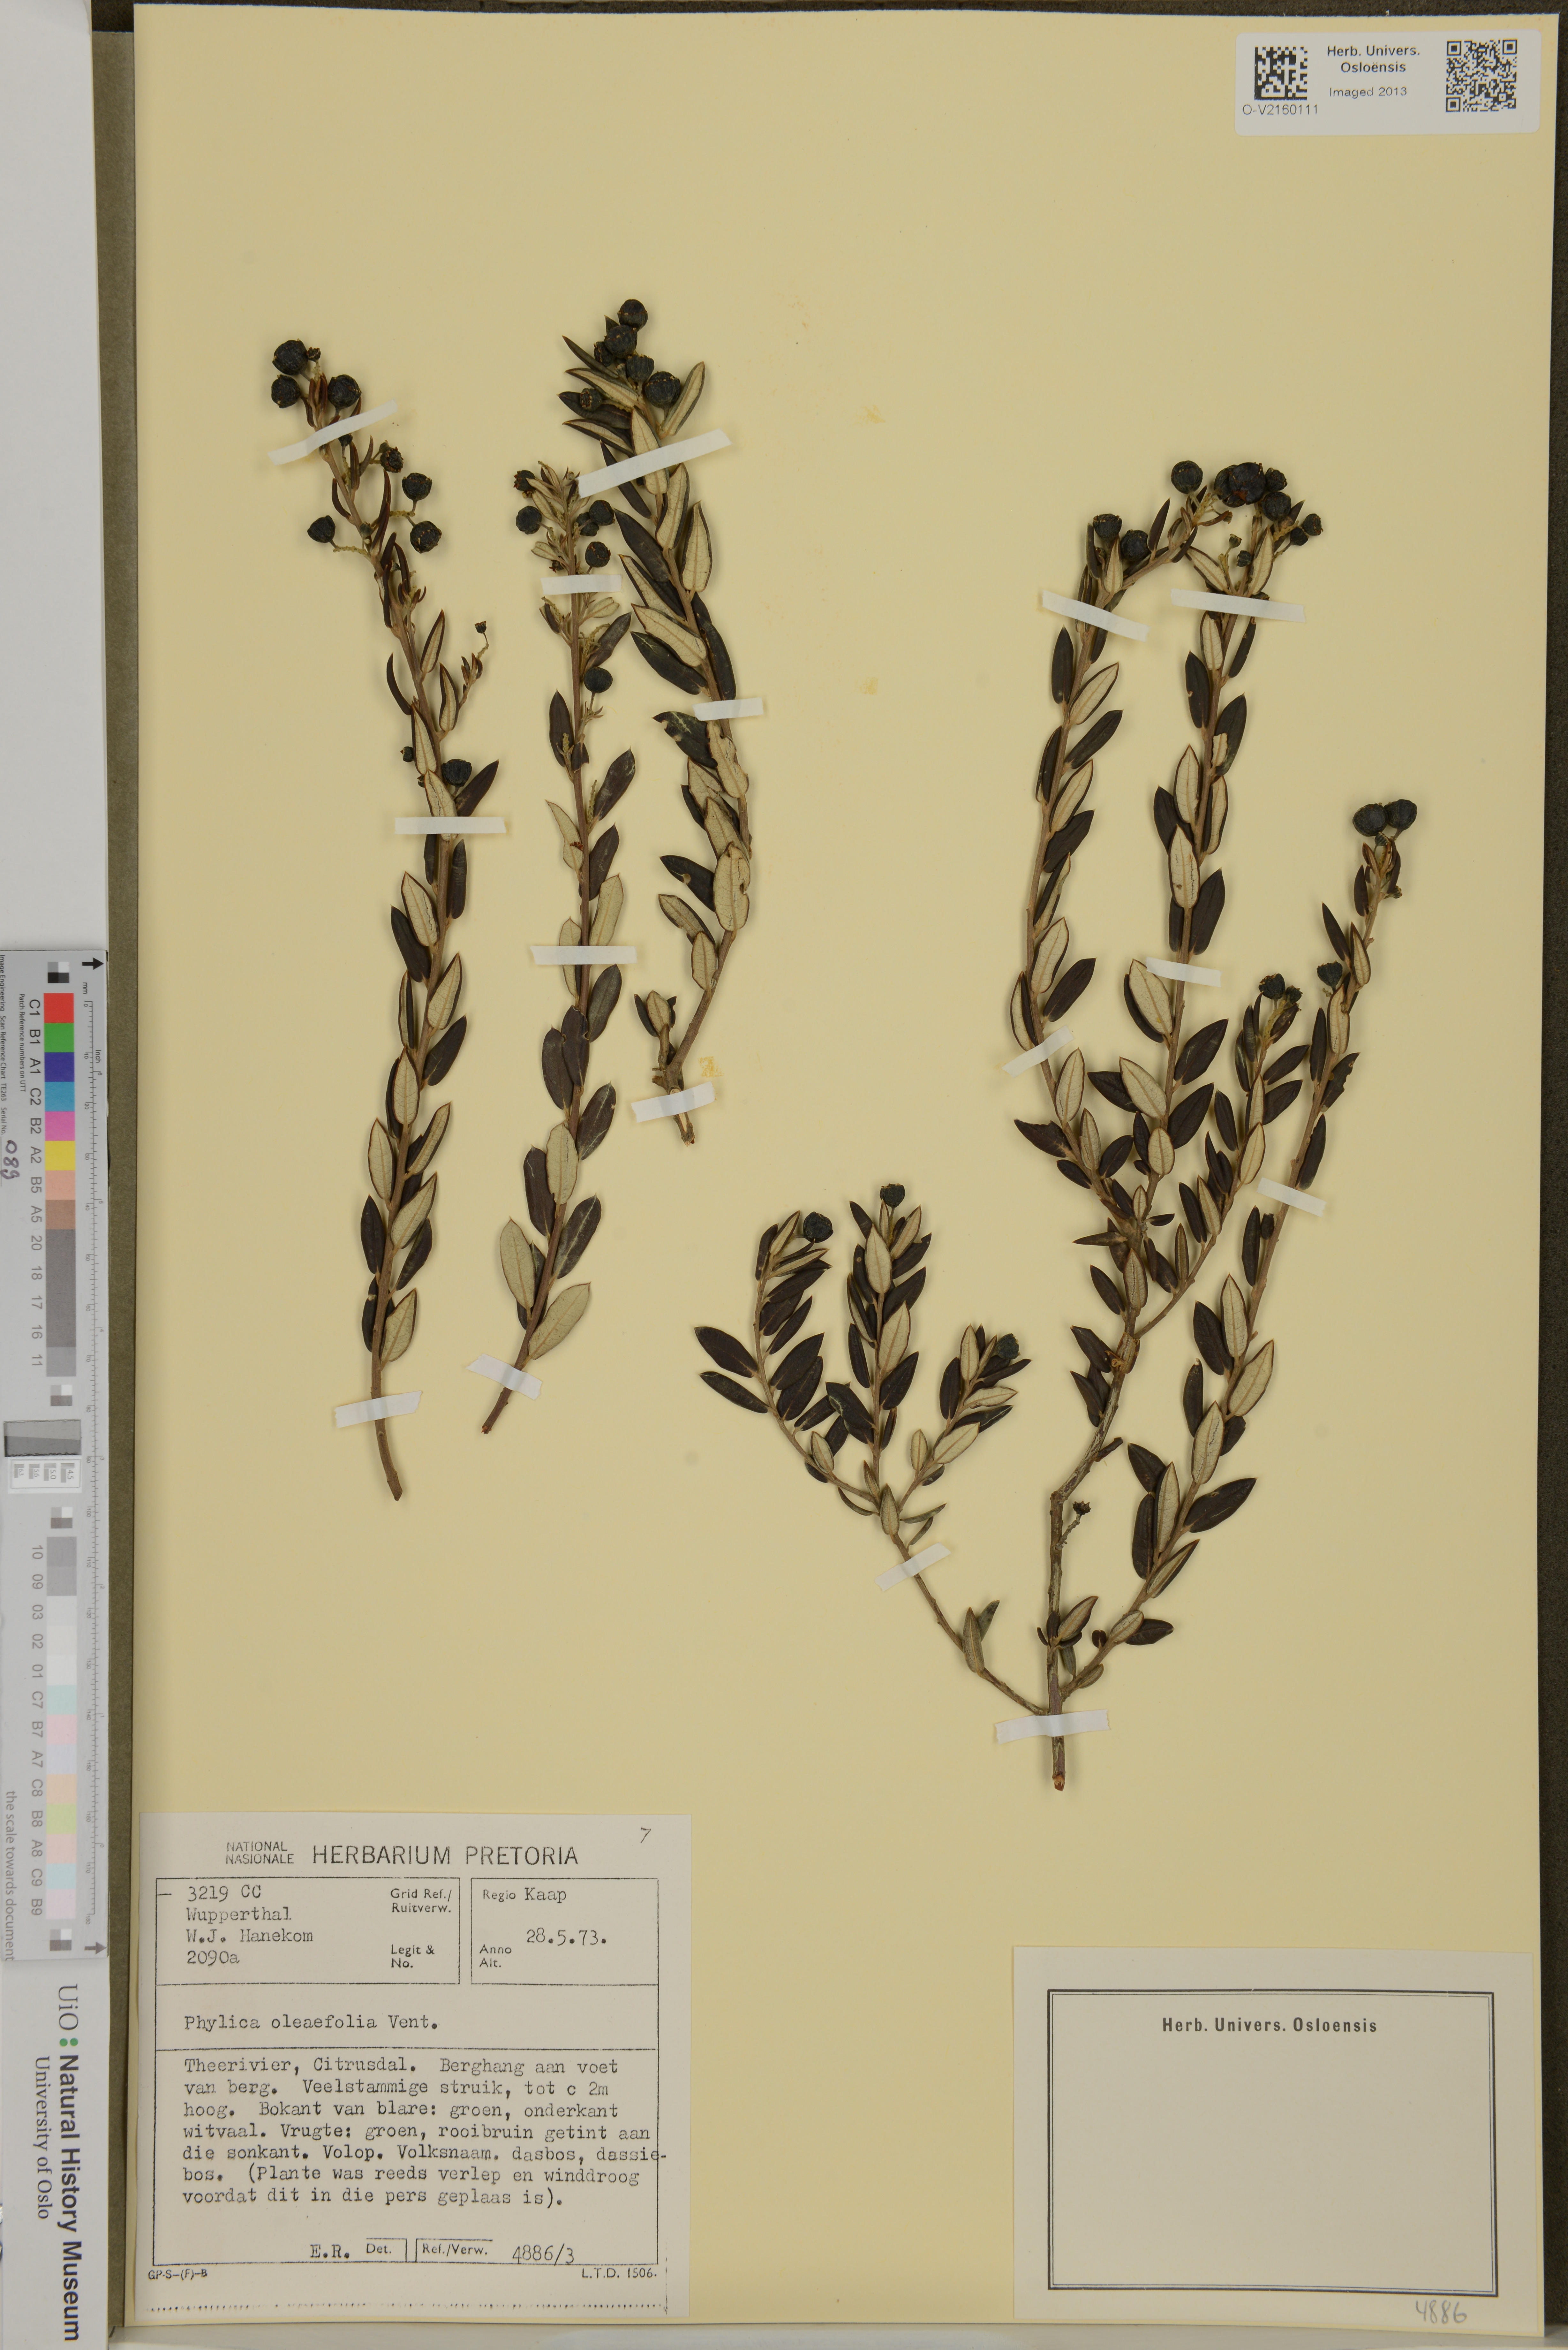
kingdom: Plantae
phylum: Tracheophyta
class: Magnoliopsida
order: Rosales
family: Rhamnaceae
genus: Phylica
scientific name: Phylica oleaefolia
